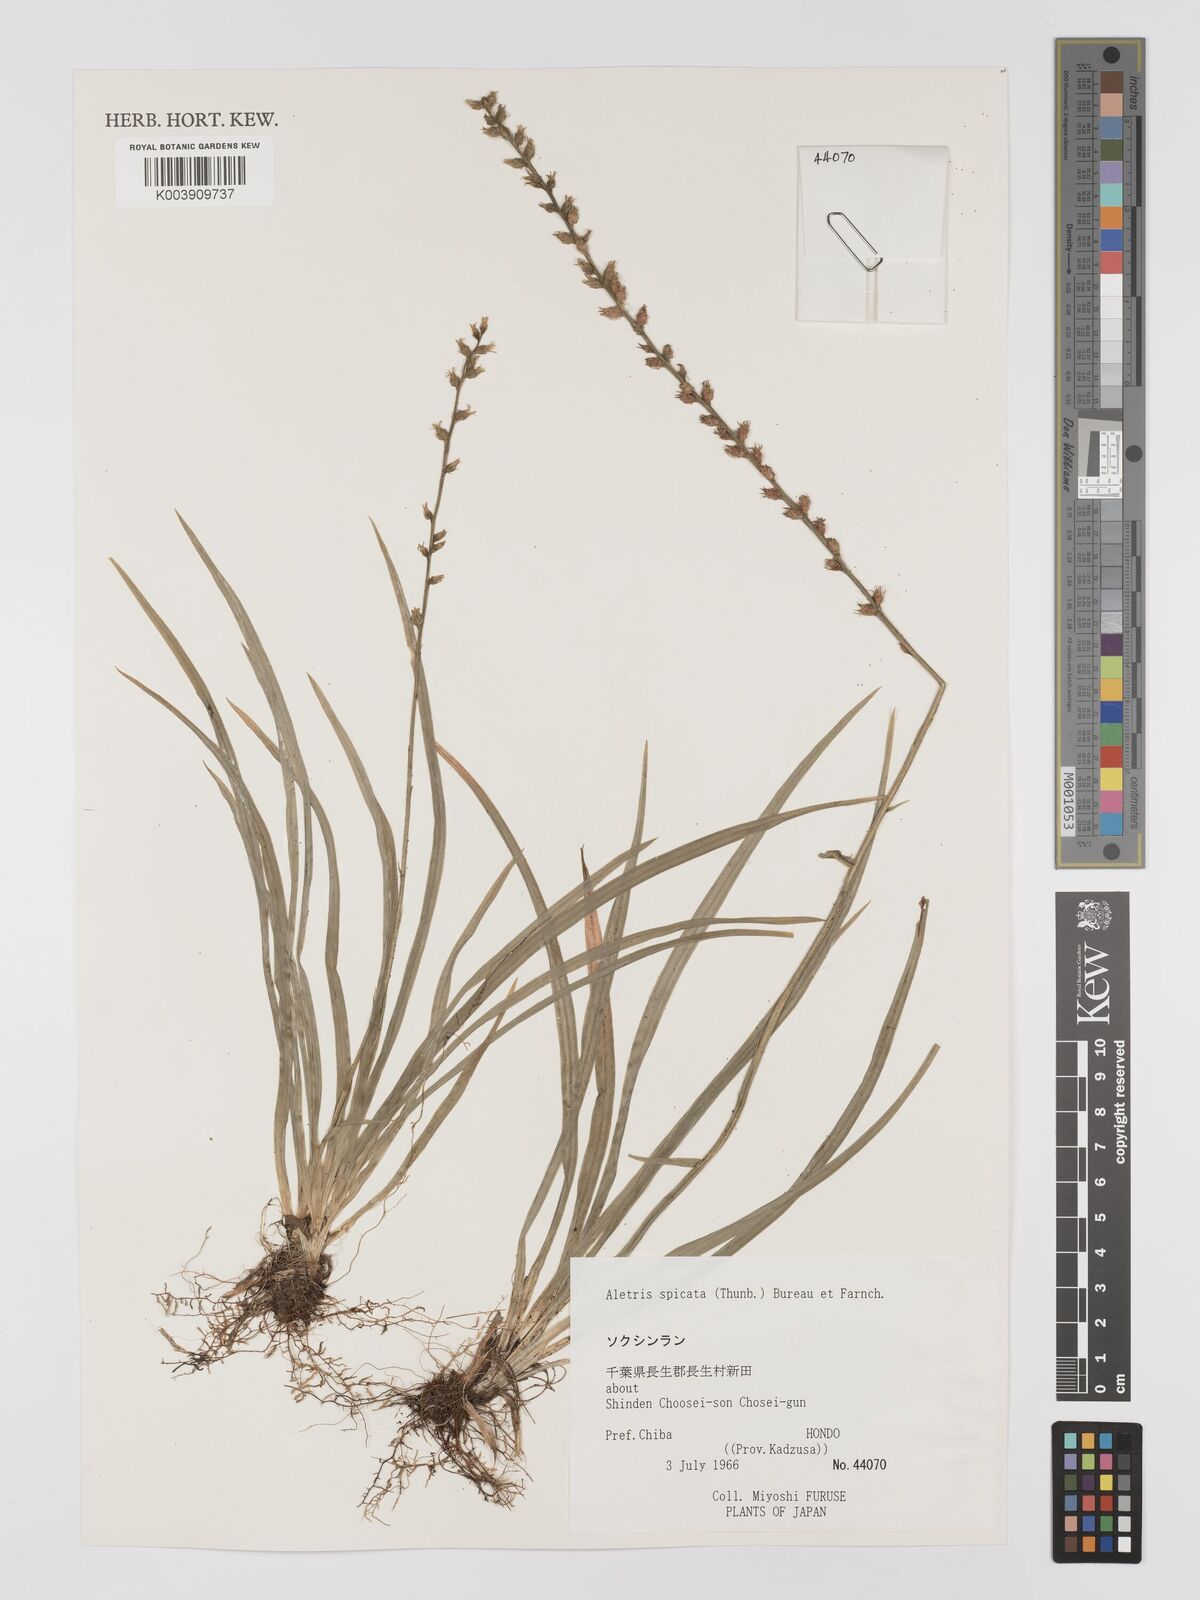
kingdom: Plantae
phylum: Tracheophyta
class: Liliopsida
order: Dioscoreales
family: Nartheciaceae
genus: Aletris
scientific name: Aletris spicata
